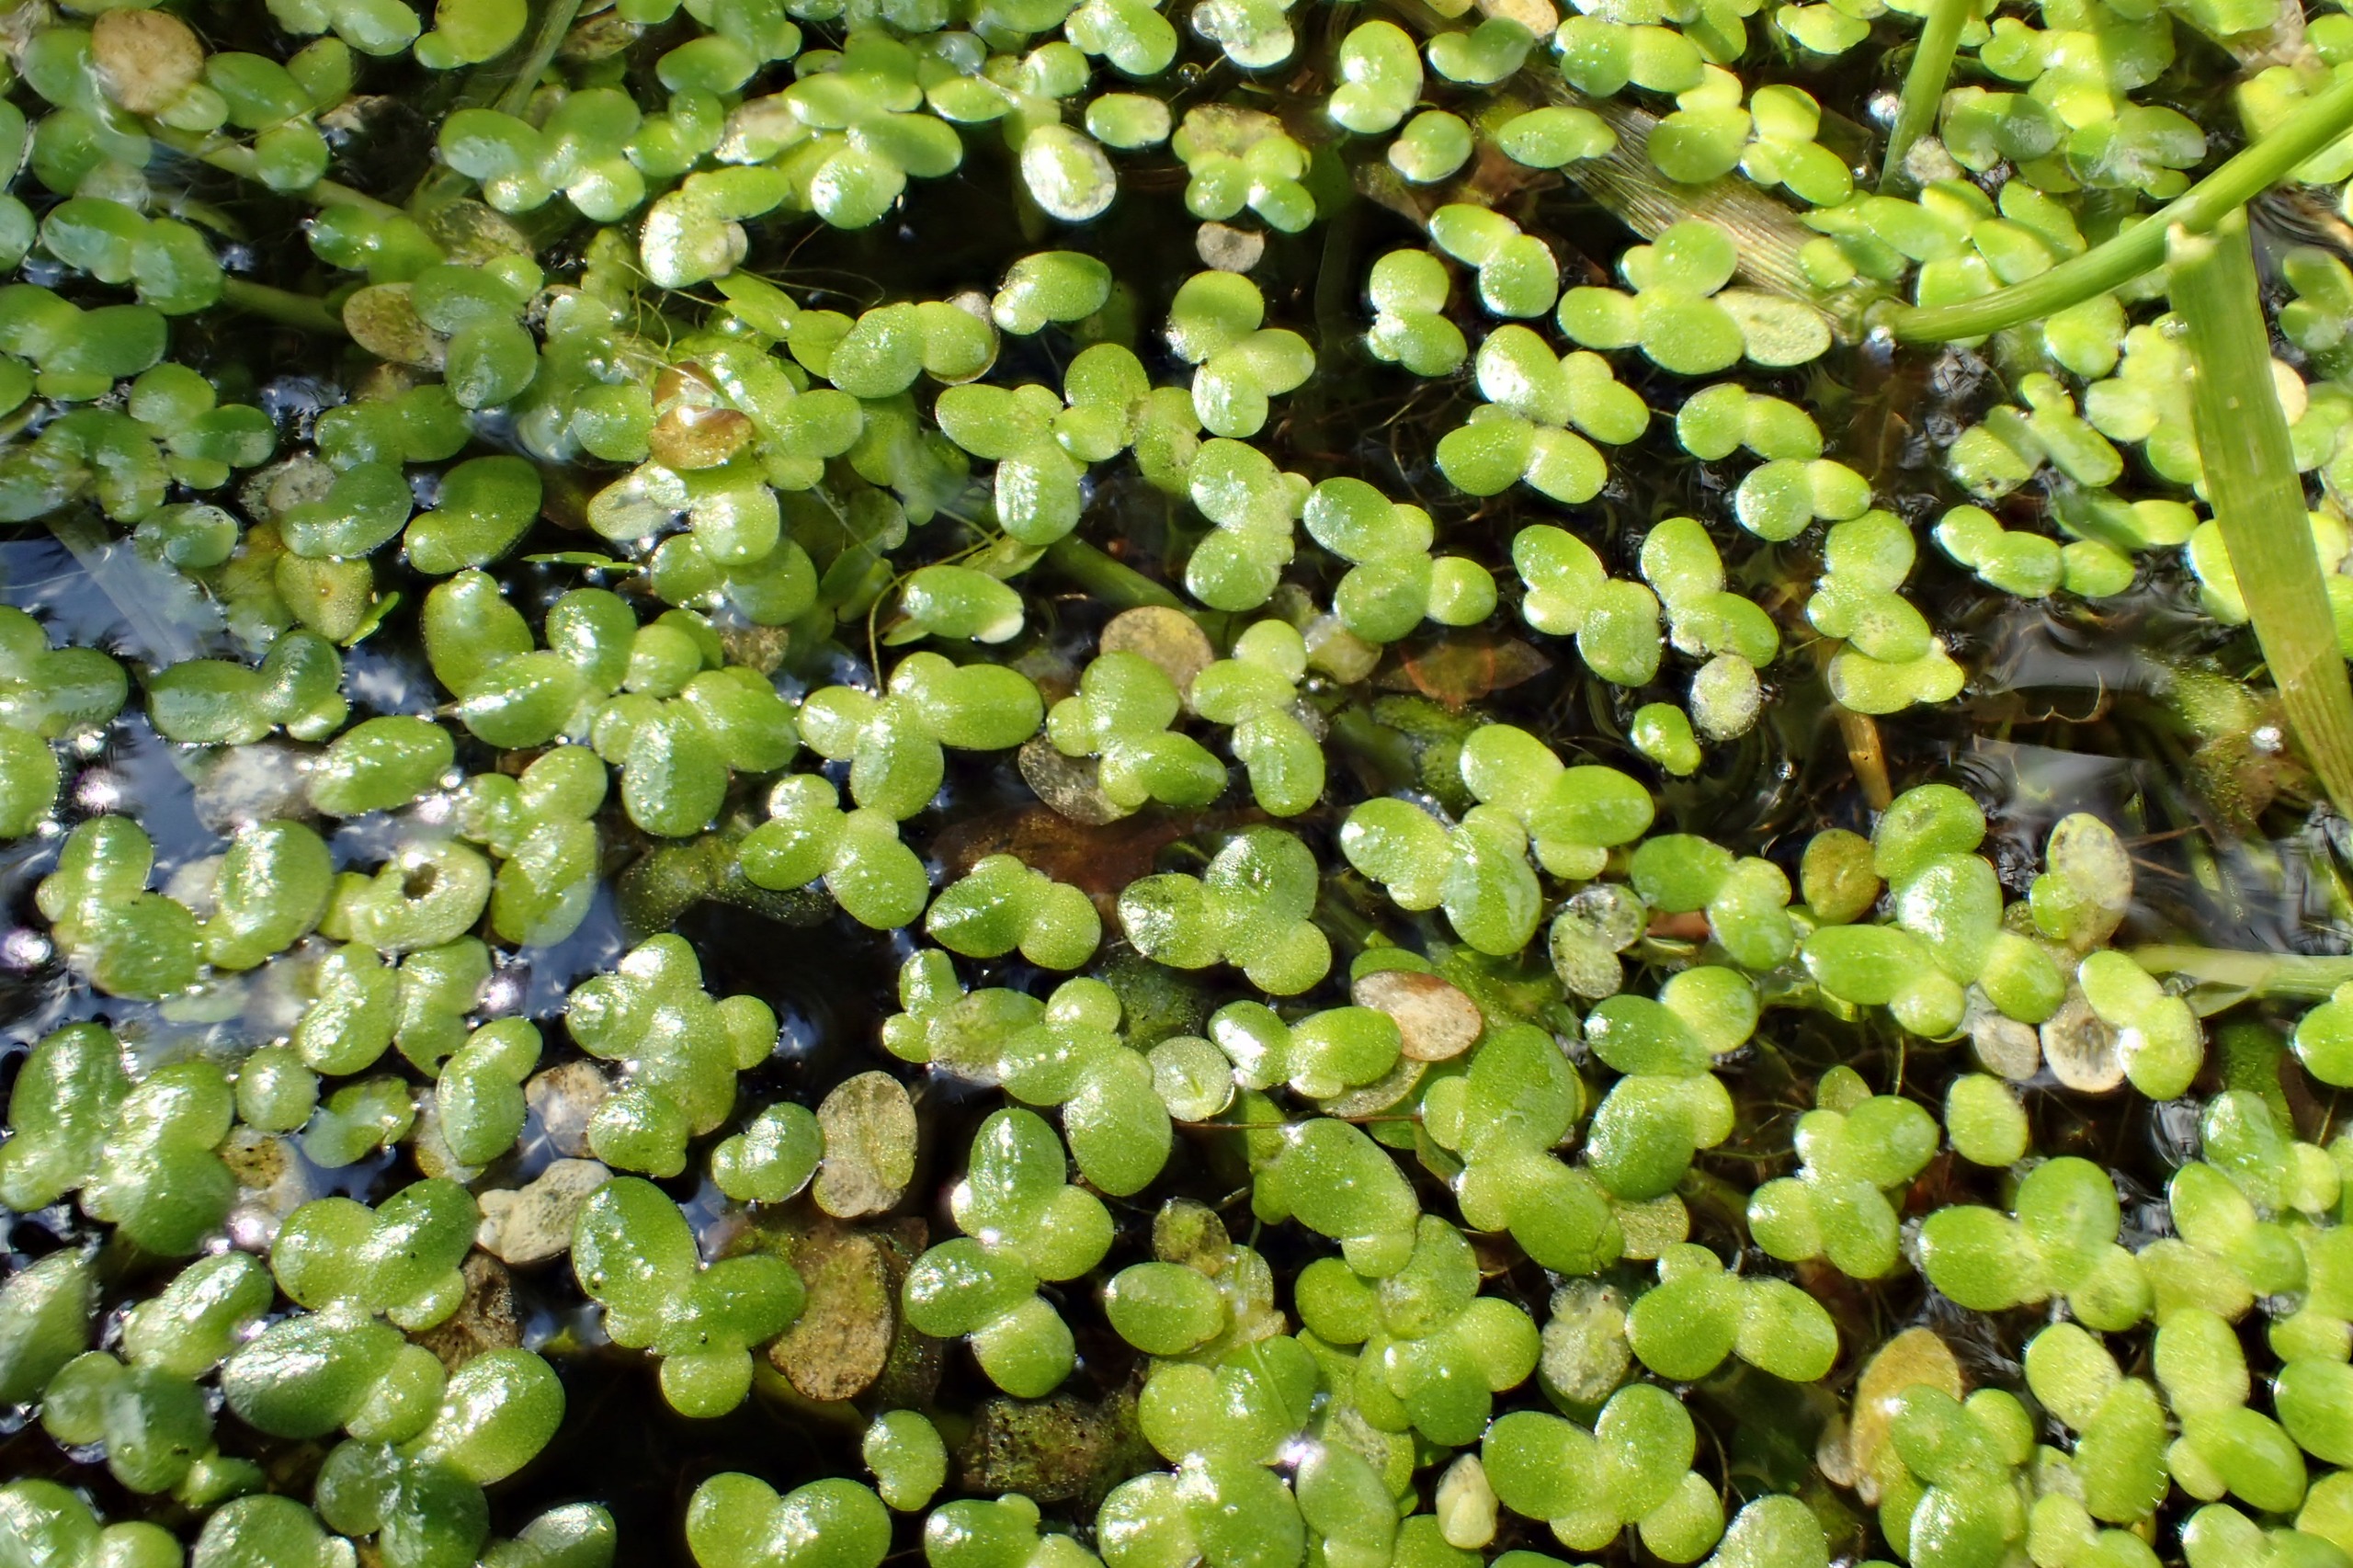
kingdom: Plantae
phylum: Tracheophyta
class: Liliopsida
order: Alismatales
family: Araceae
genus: Lemna
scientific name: Lemna minor
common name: Liden andemad
